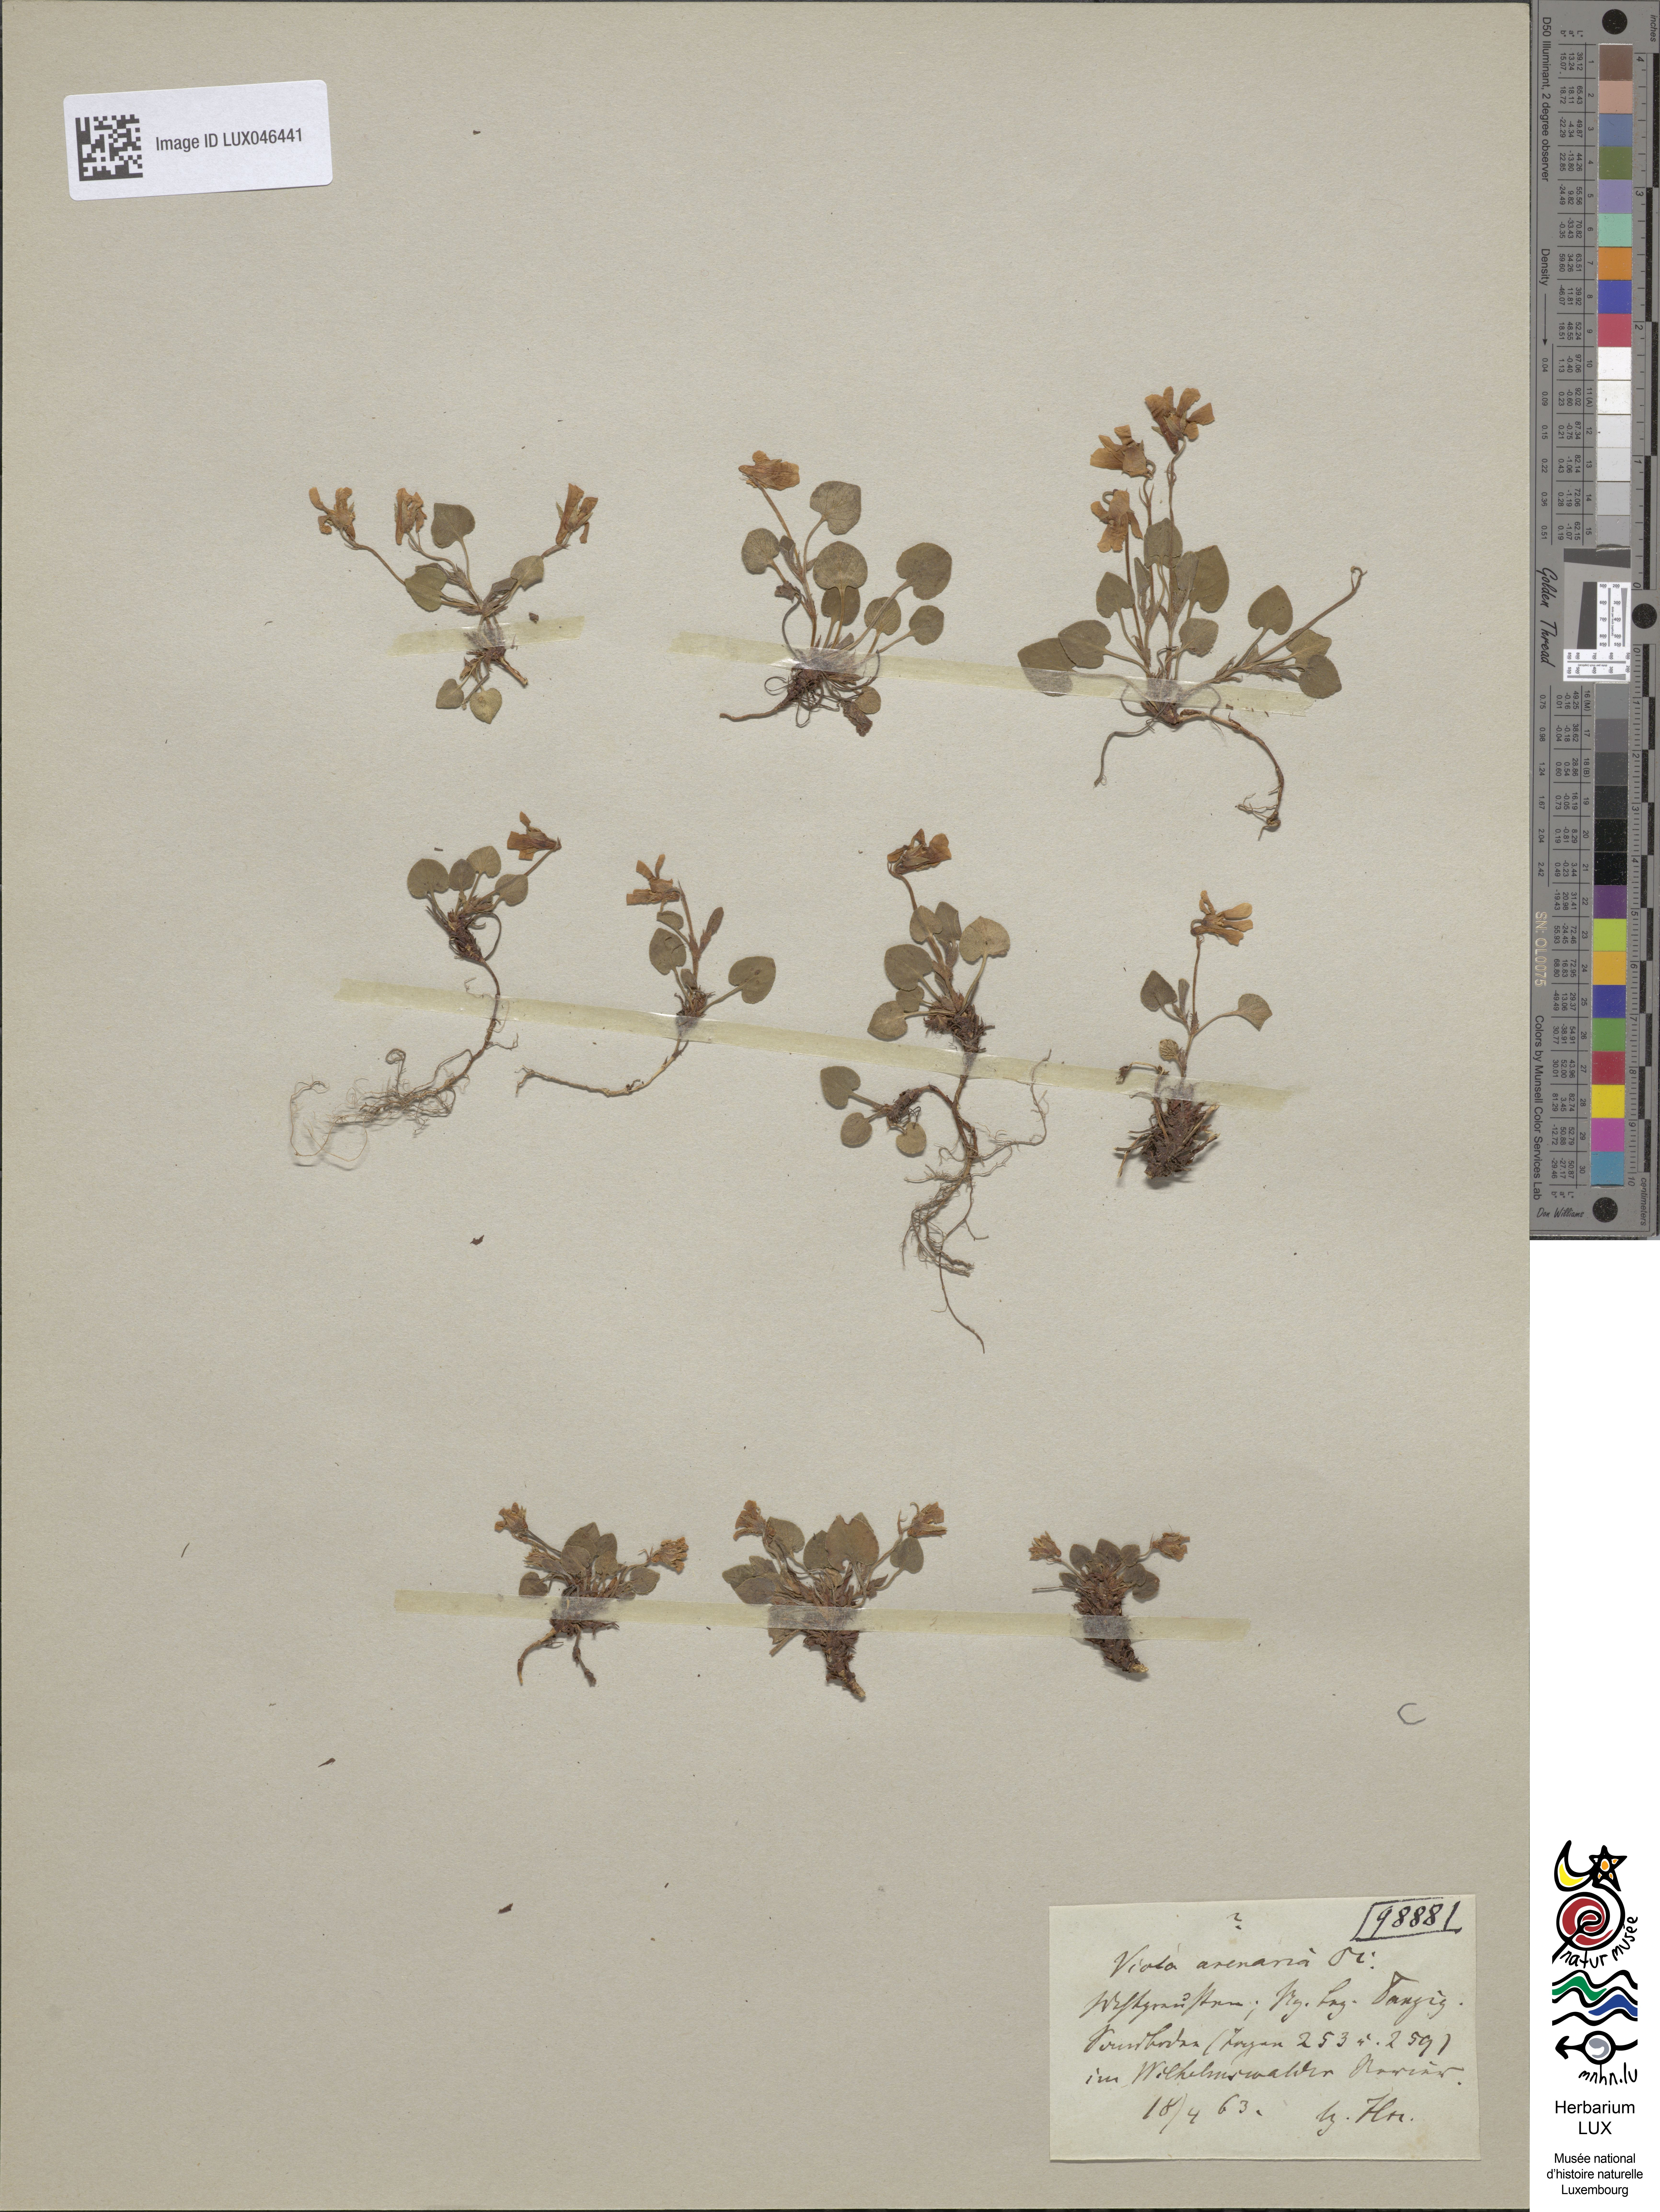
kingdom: Plantae
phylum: Tracheophyta
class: Magnoliopsida
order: Malpighiales
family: Violaceae
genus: Viola
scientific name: Viola rupestris
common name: Teesdale violet
